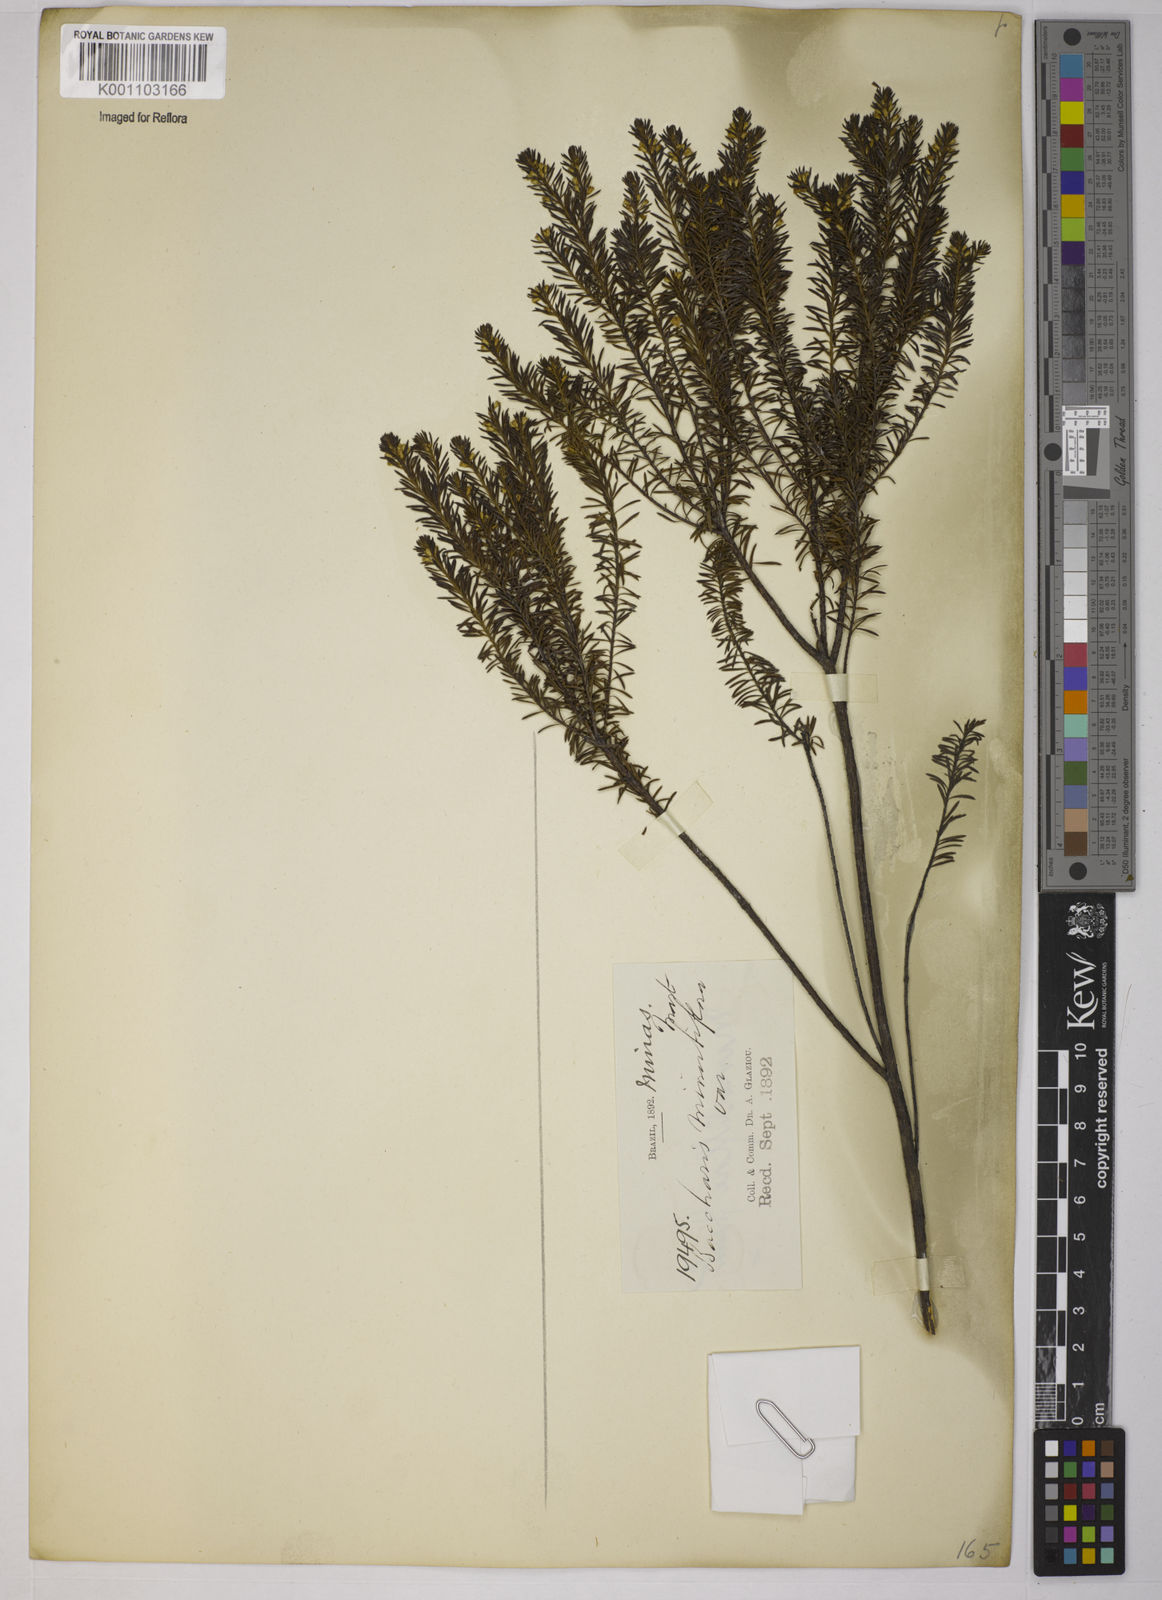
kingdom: Plantae
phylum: Tracheophyta
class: Magnoliopsida
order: Asterales
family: Asteraceae
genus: Baccharis
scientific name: Baccharis minutiflora
